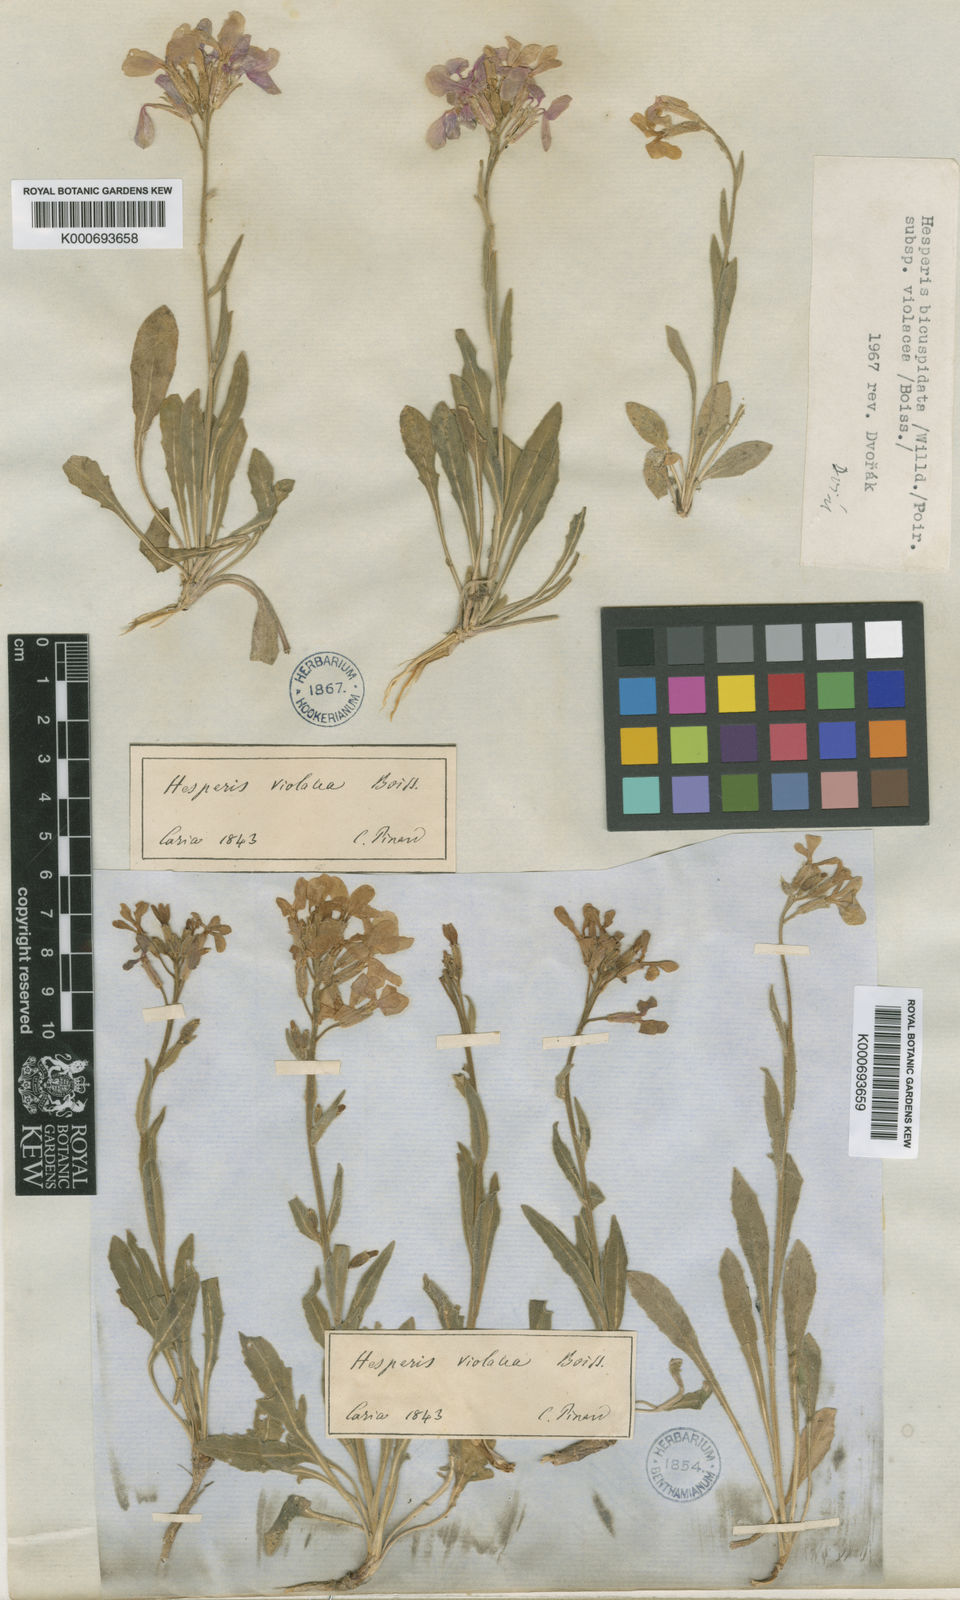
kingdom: Plantae
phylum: Tracheophyta
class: Magnoliopsida
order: Brassicales
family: Brassicaceae
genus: Hesperis
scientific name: Hesperis bicuspidata
